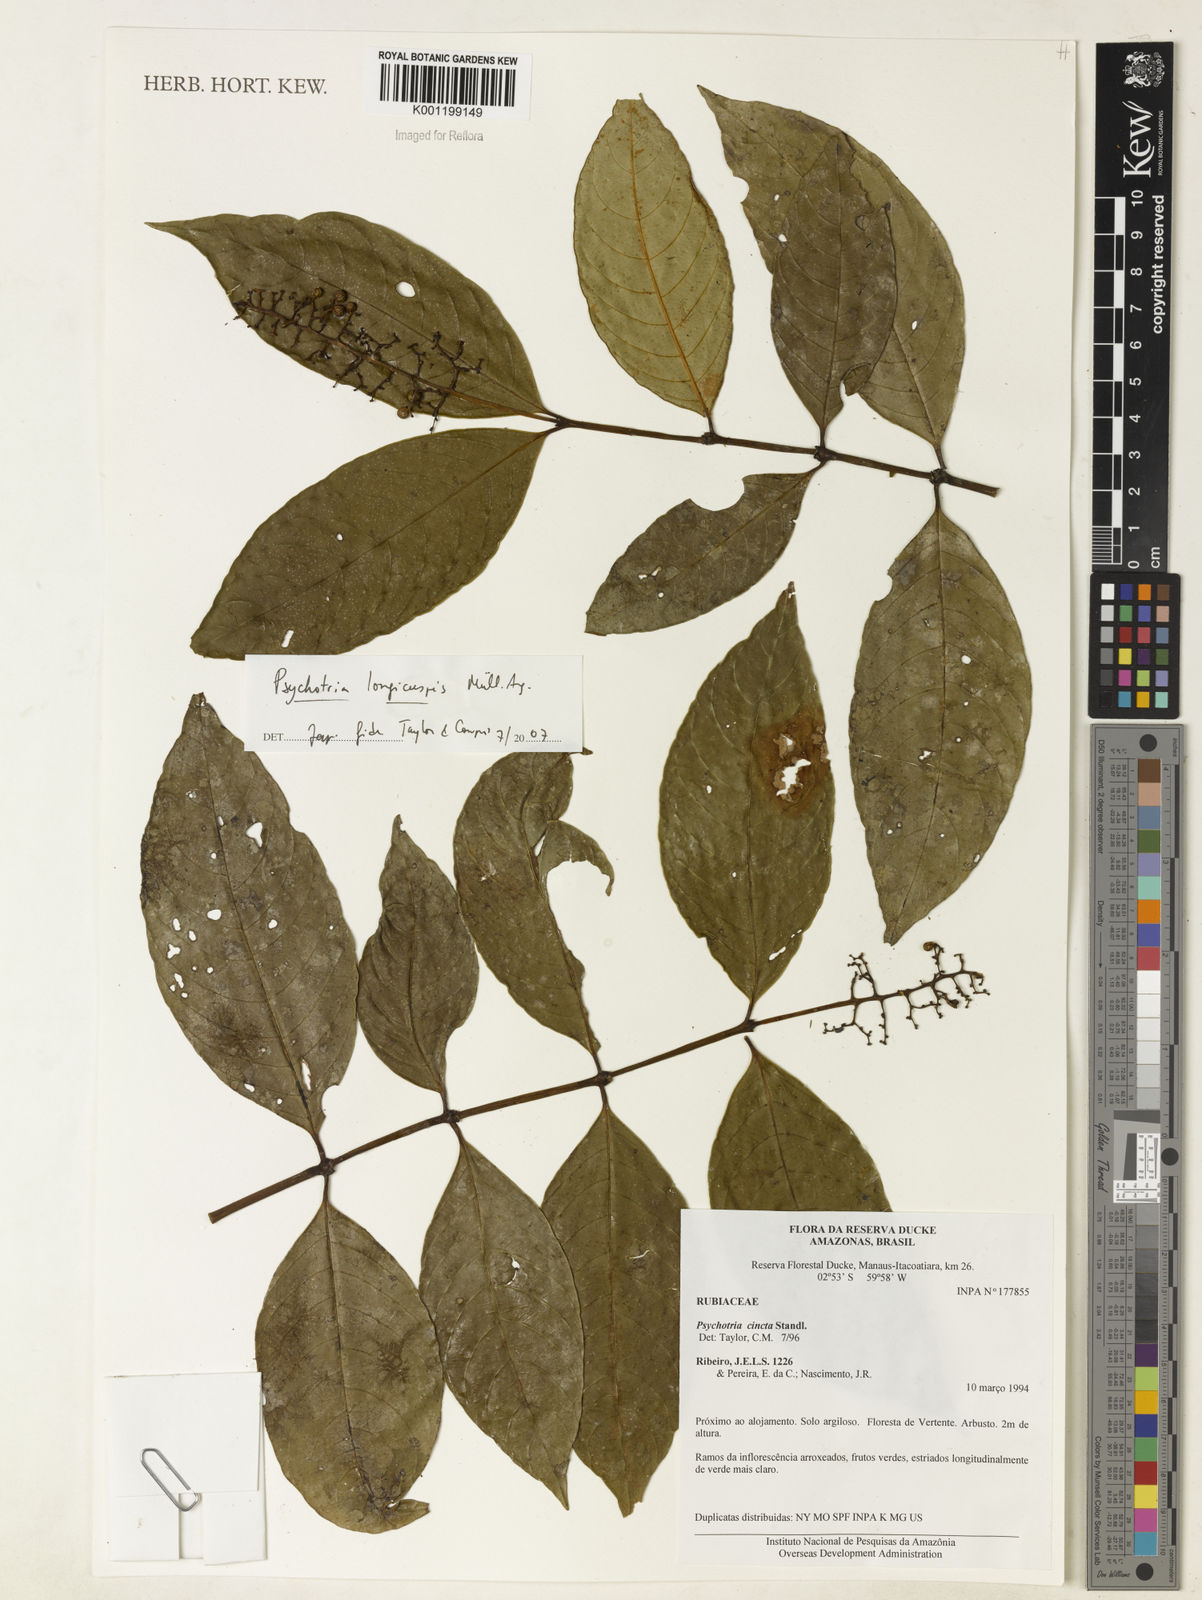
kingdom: Plantae
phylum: Tracheophyta
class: Magnoliopsida
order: Gentianales
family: Rubiaceae
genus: Psychotria
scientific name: Psychotria
